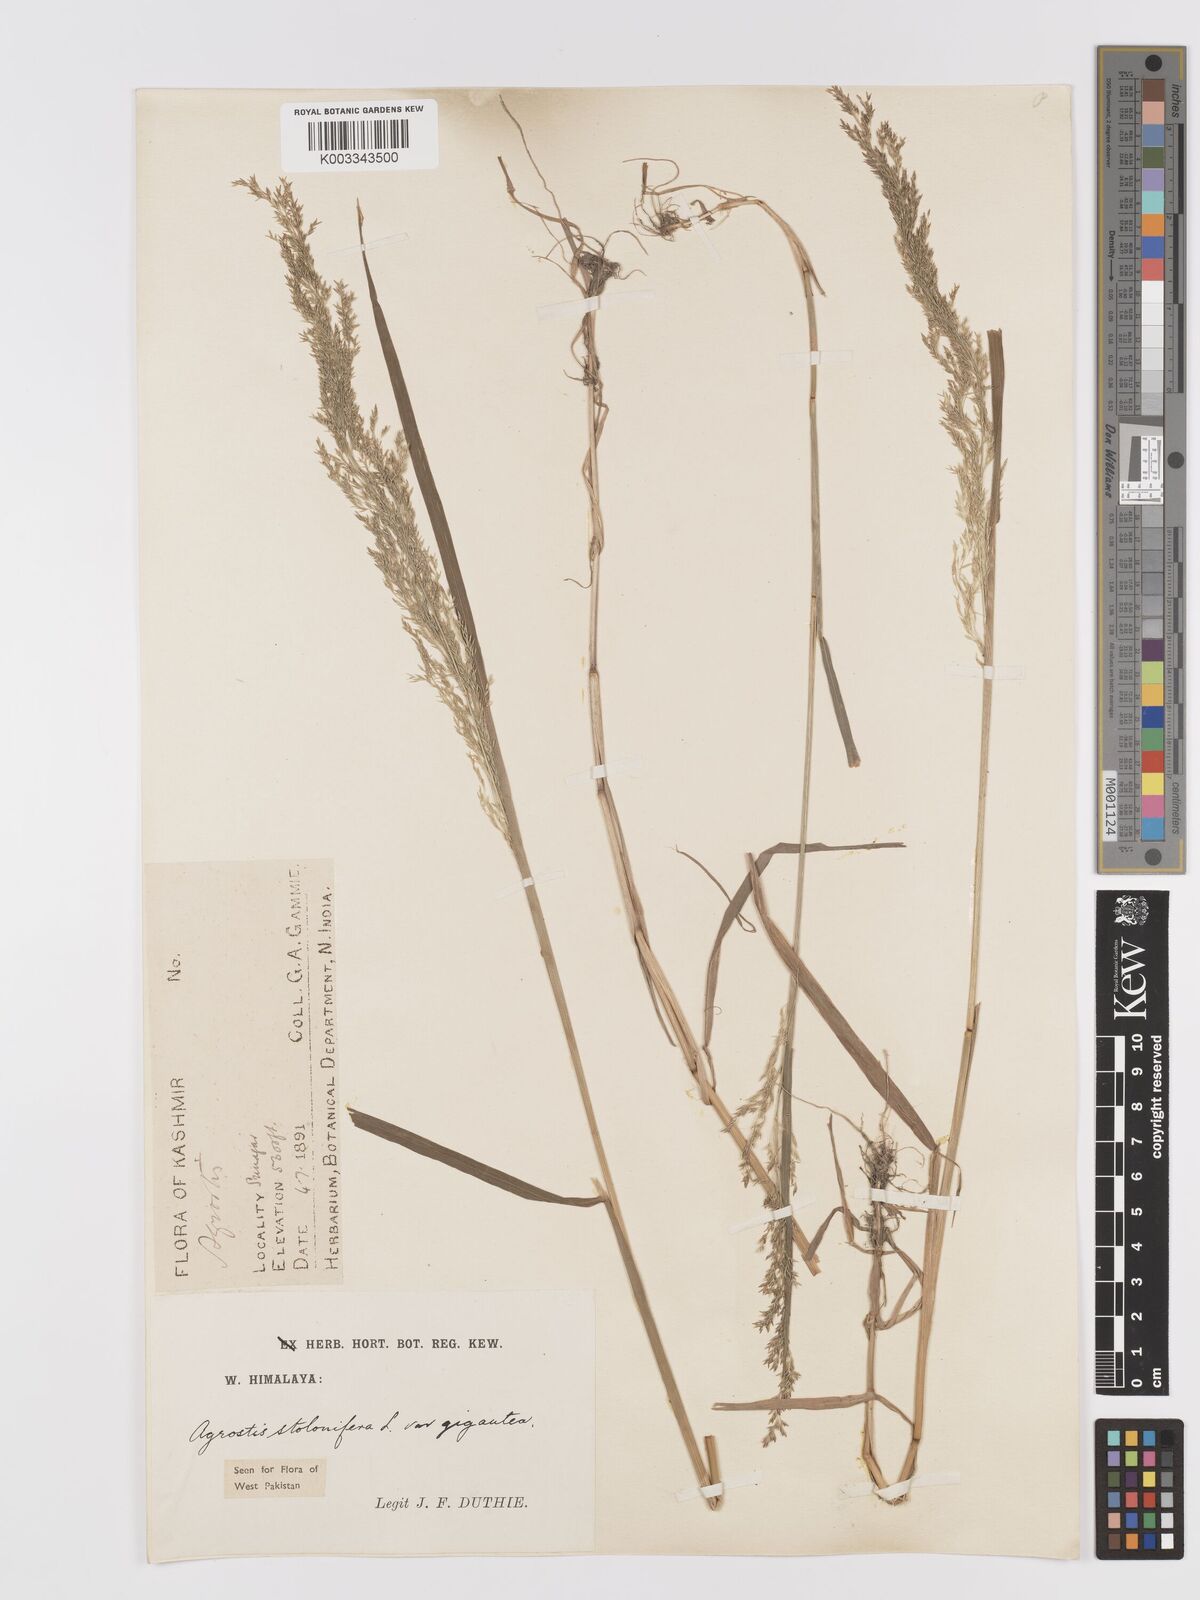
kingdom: Plantae
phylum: Tracheophyta
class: Liliopsida
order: Poales
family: Poaceae
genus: Agrostis
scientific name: Agrostis gigantea
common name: Black bent
